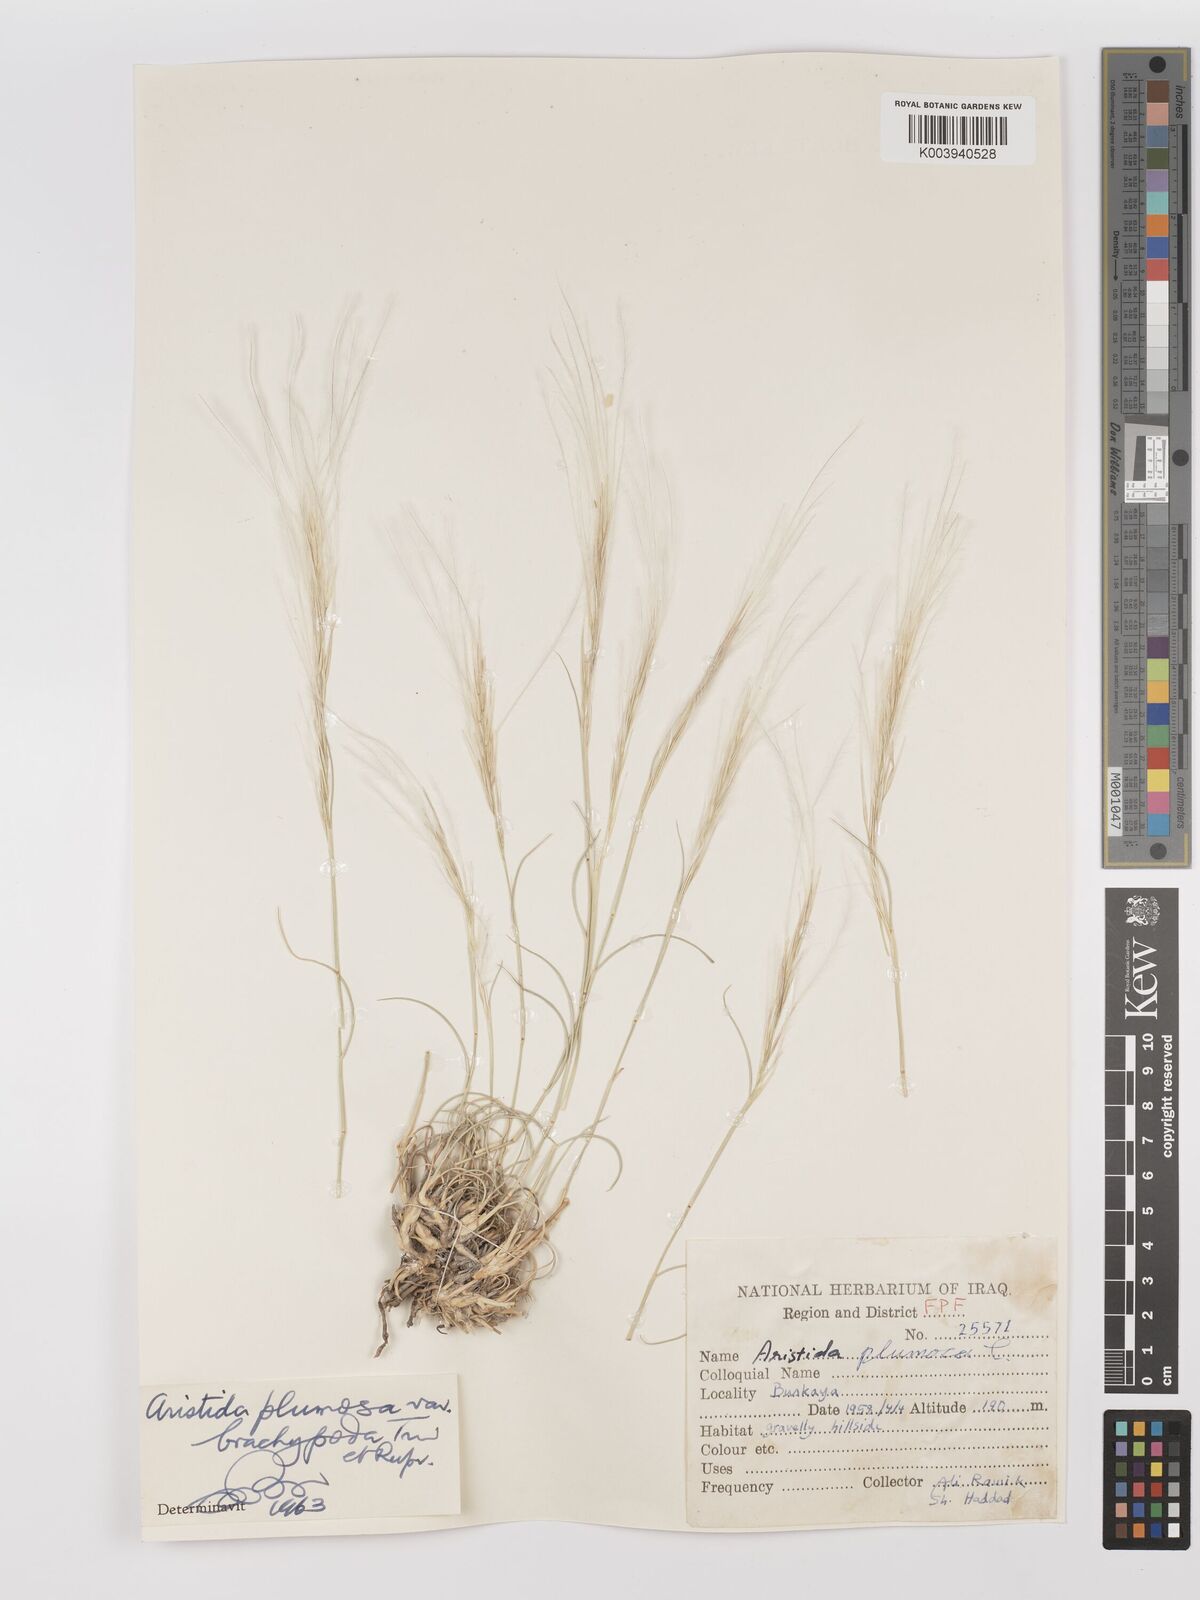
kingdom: Plantae
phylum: Tracheophyta
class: Liliopsida
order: Poales
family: Poaceae
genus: Stipagrostis
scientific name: Stipagrostis plumosa
